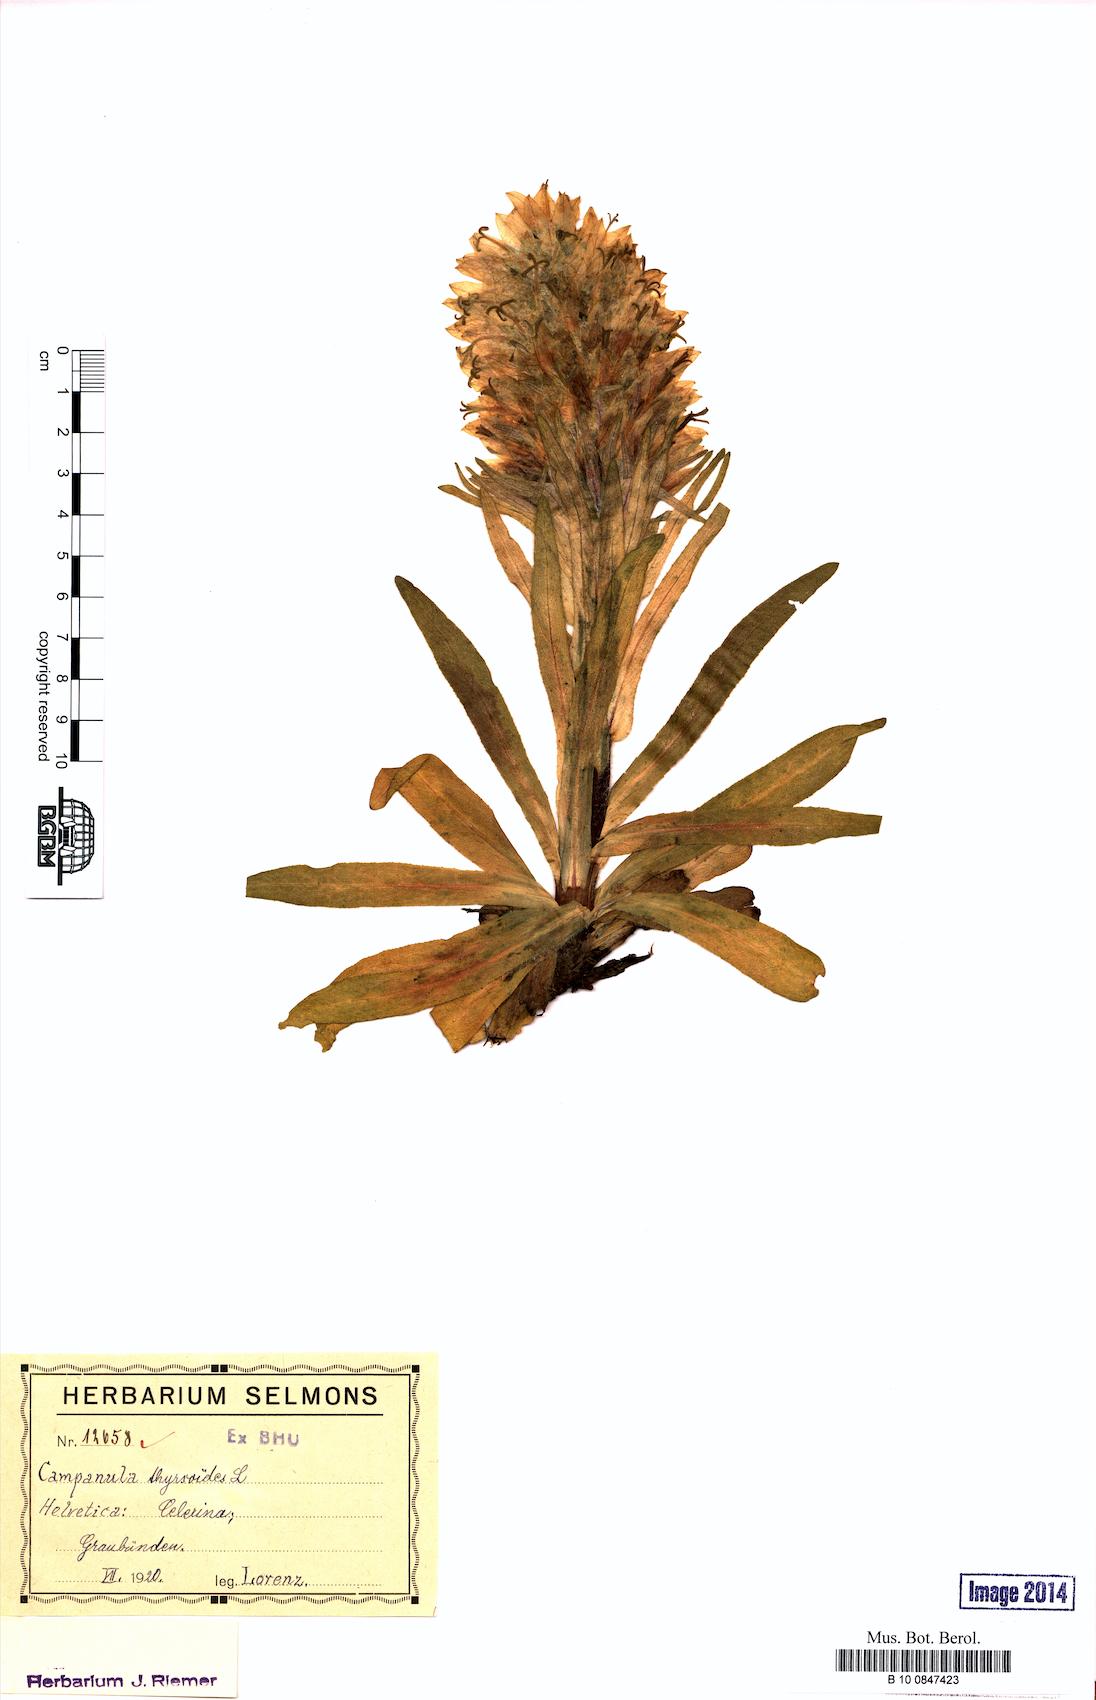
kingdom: Plantae
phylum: Tracheophyta
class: Magnoliopsida
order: Asterales
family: Campanulaceae
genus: Campanula
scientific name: Campanula thyrsoides
